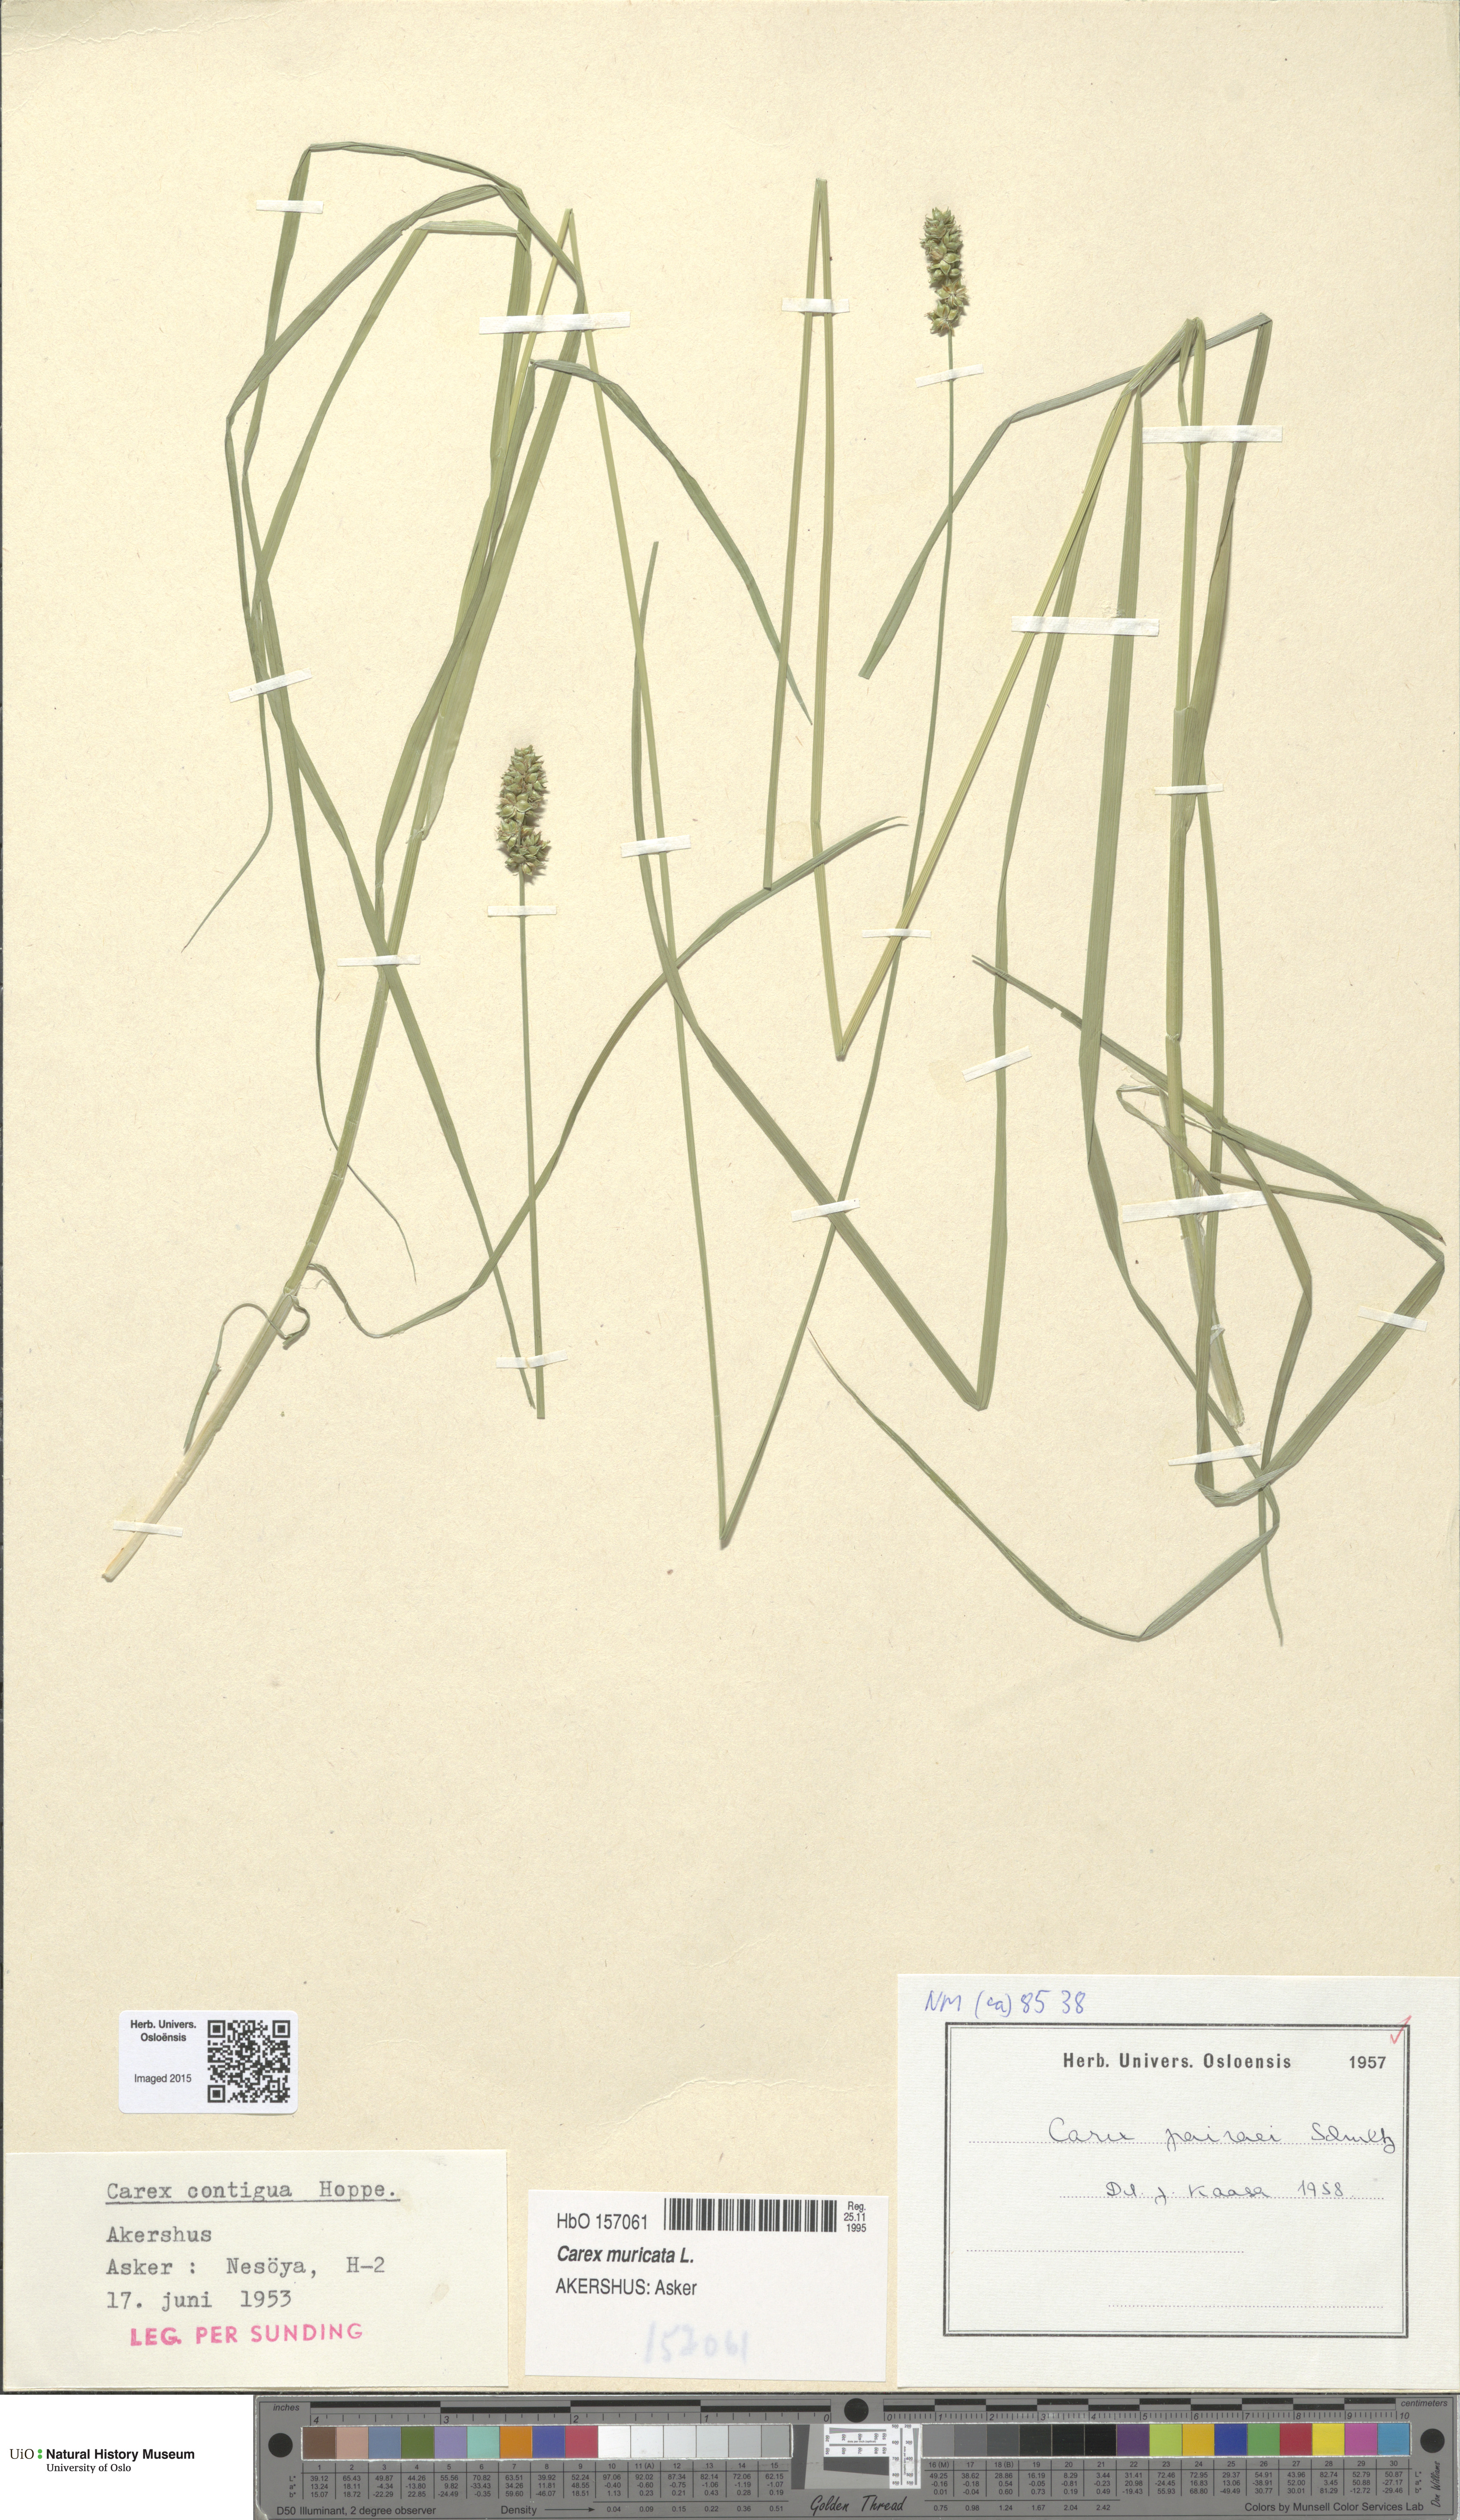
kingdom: Plantae
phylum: Tracheophyta
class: Liliopsida
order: Poales
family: Cyperaceae
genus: Carex
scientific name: Carex pairae
